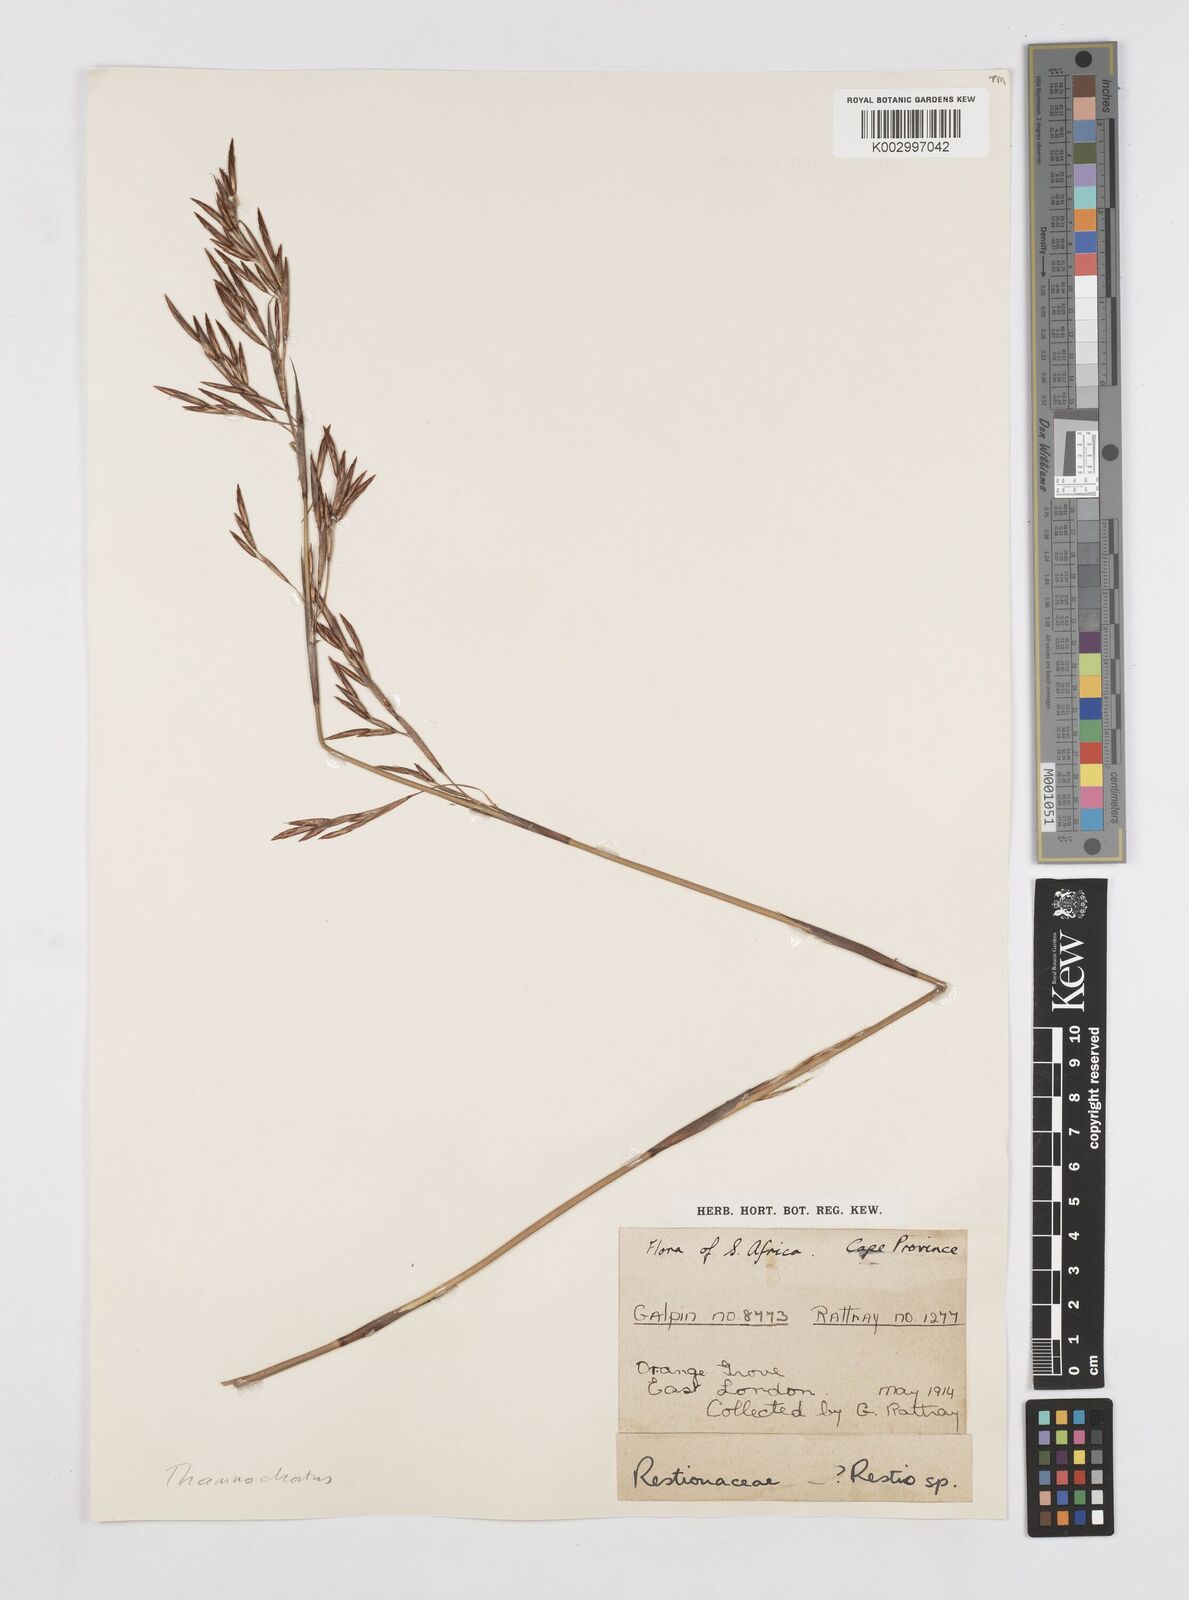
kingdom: Plantae
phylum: Tracheophyta
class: Liliopsida
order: Poales
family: Restionaceae
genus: Thamnochortus
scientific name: Thamnochortus glaber
